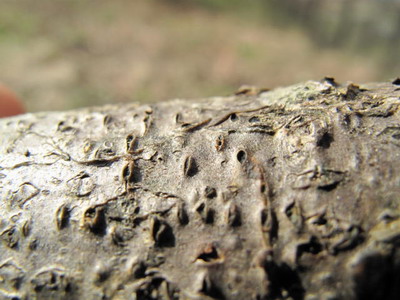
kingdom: Fungi
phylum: Ascomycota
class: Leotiomycetes
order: Rhytismatales
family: Rhytismataceae
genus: Colpoma
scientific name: Colpoma quercinum
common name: ege-sprækkeskive
